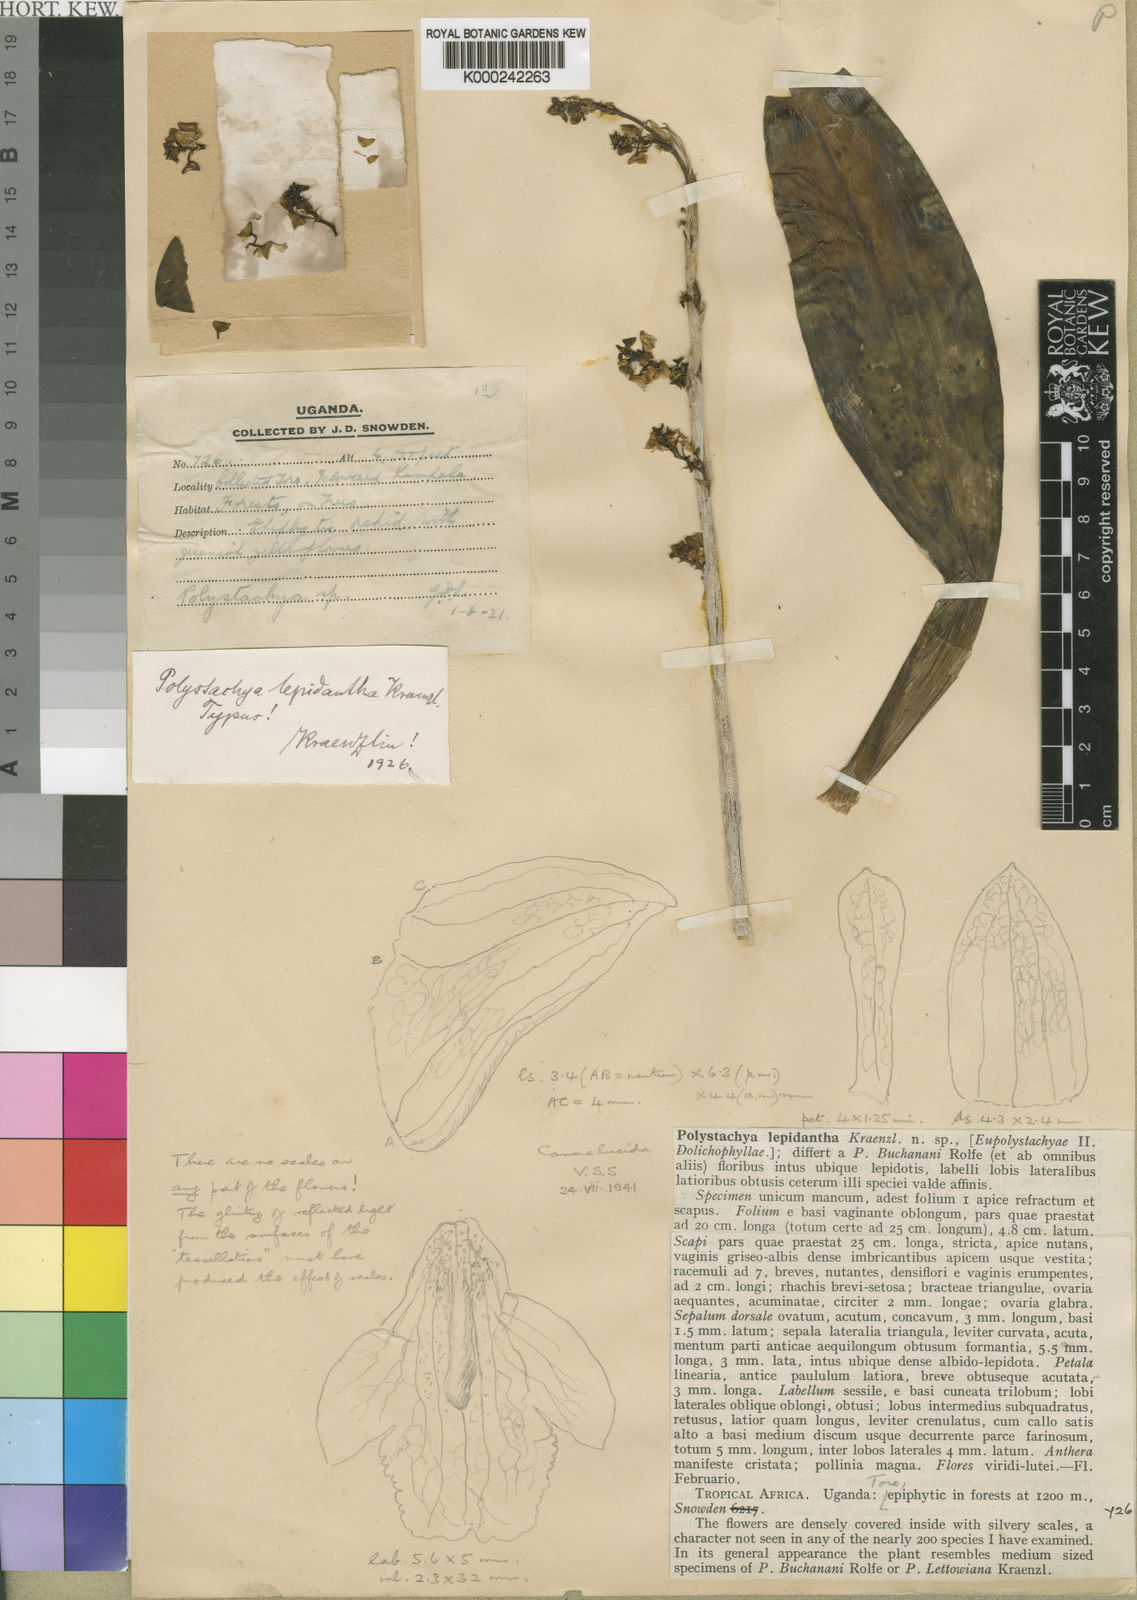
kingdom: Plantae
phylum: Tracheophyta
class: Liliopsida
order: Asparagales
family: Orchidaceae
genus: Polystachya
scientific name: Polystachya concreta
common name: Greater yellowspike orchid
